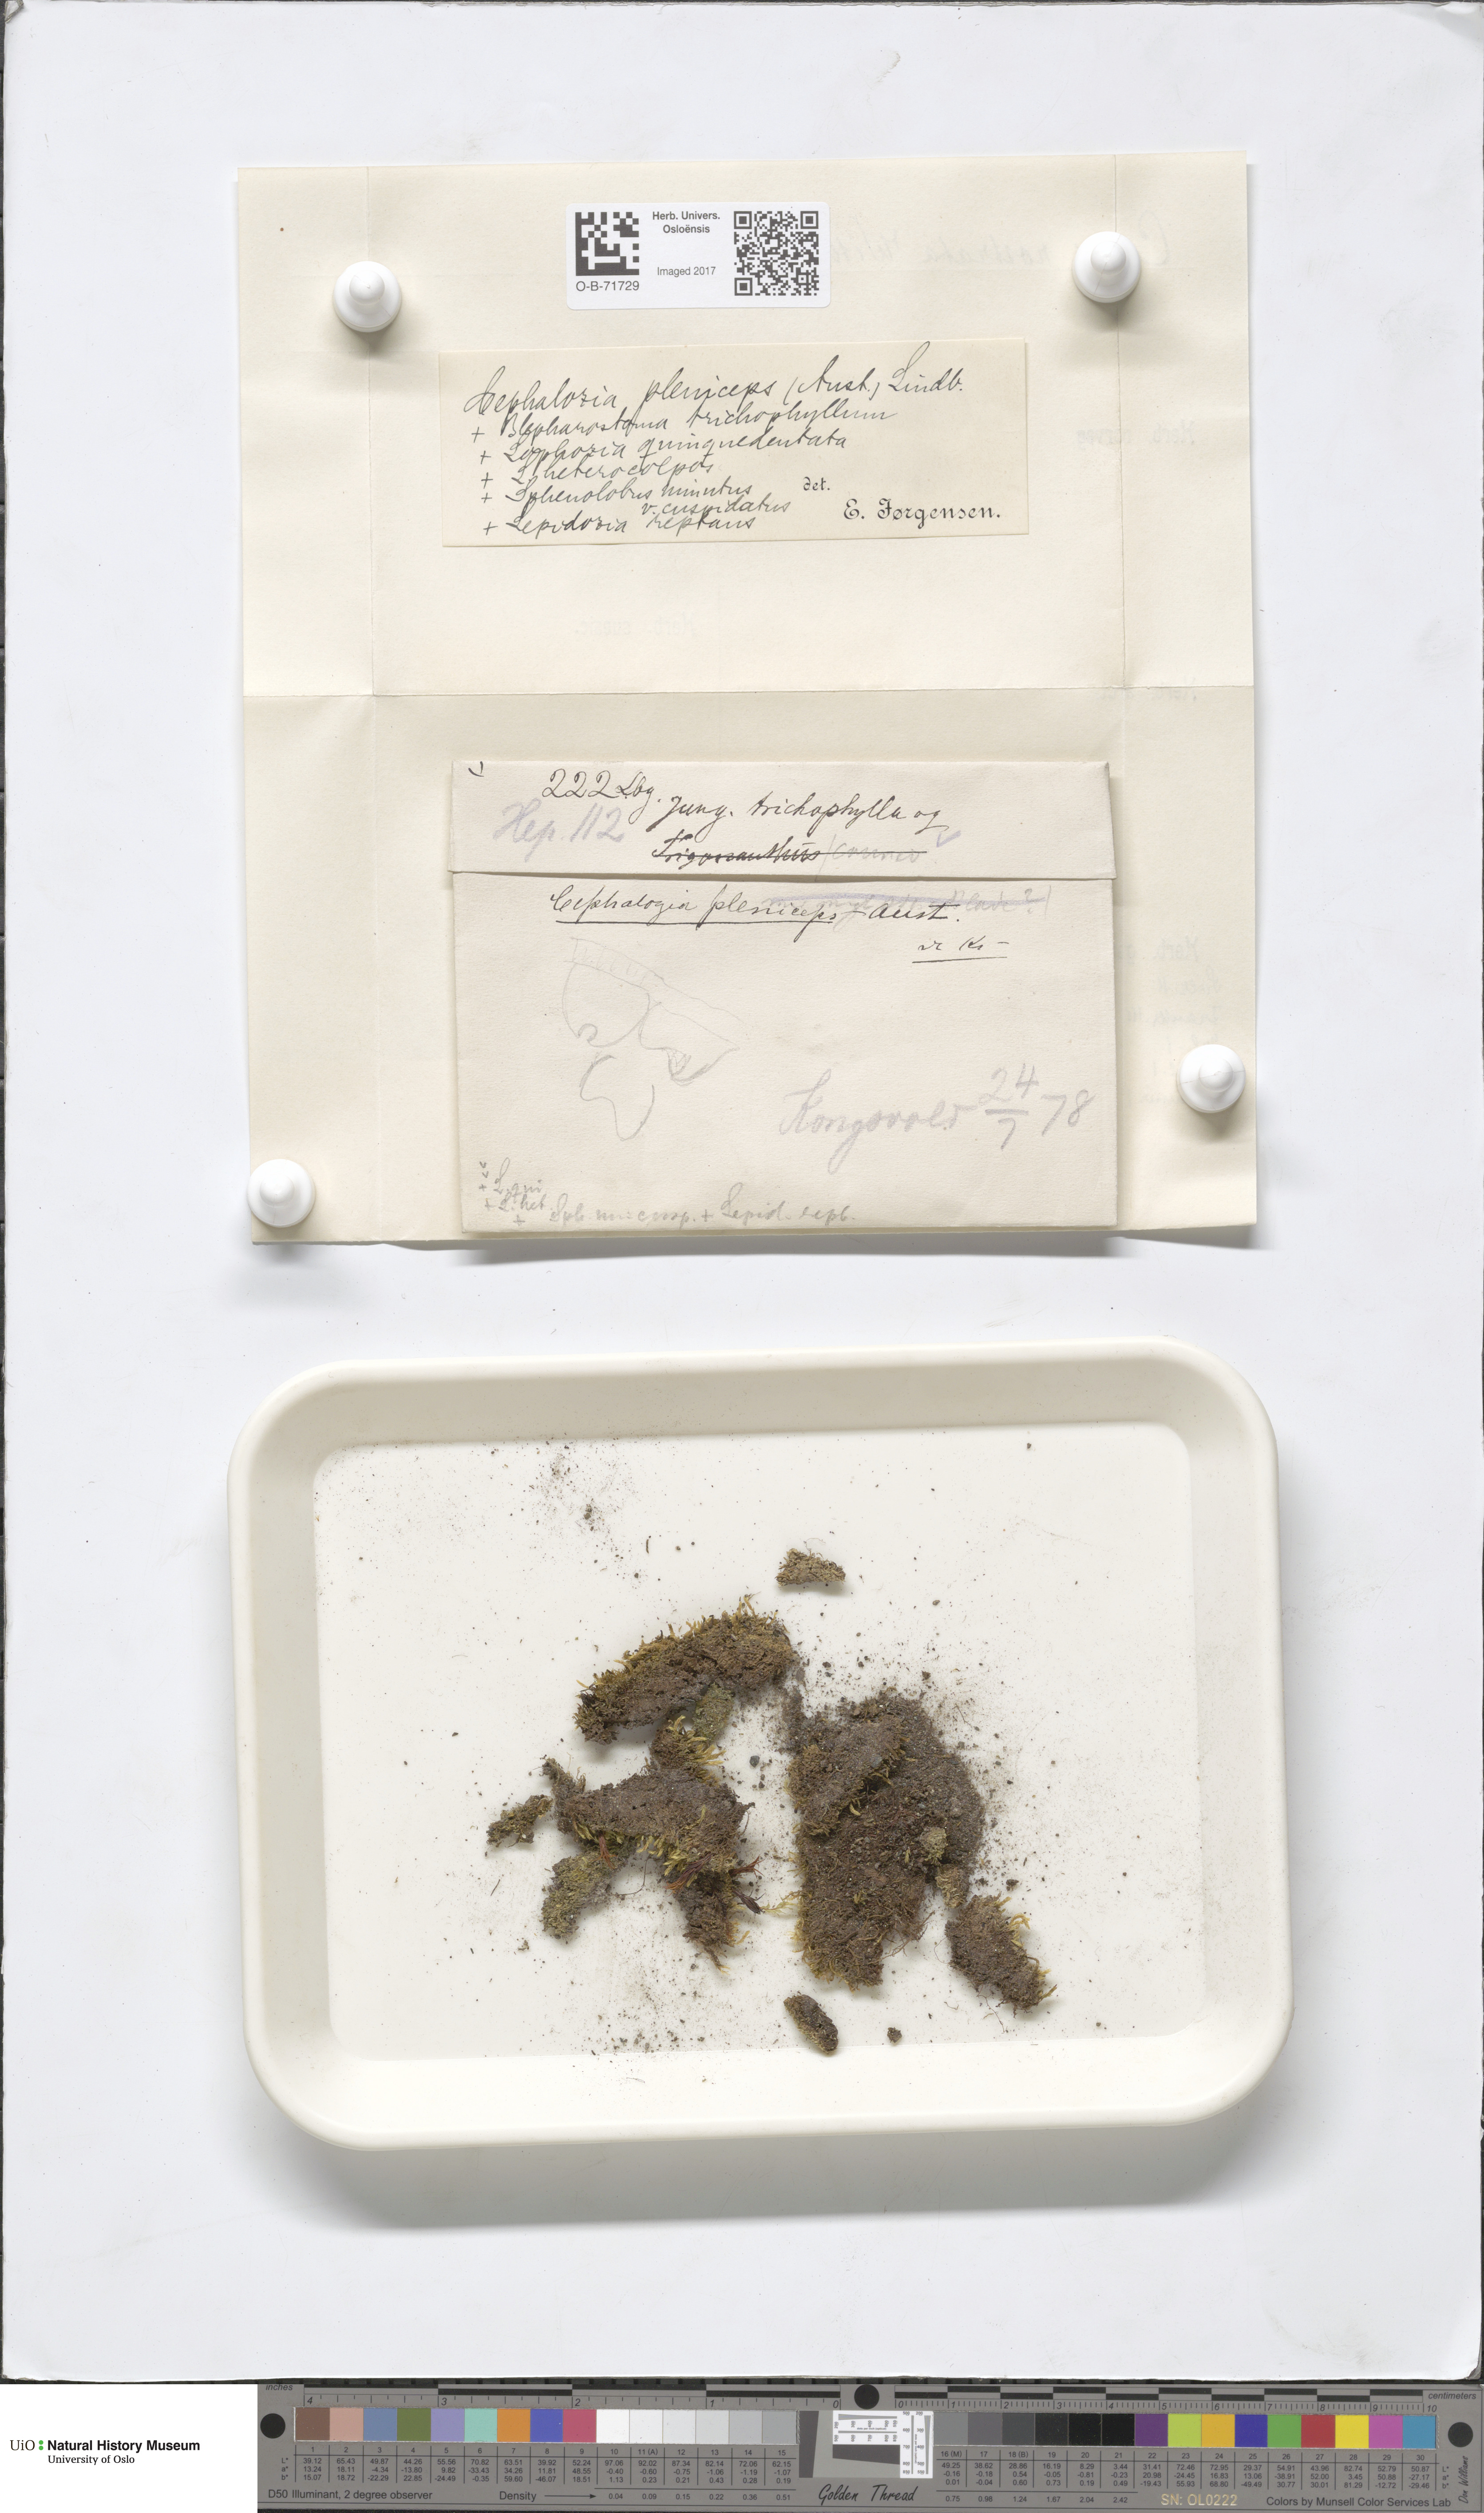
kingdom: Plantae
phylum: Marchantiophyta
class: Jungermanniopsida
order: Jungermanniales
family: Cephaloziaceae
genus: Fuscocephaloziopsis
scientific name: Fuscocephaloziopsis pleniceps
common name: Blunt pincerwort
